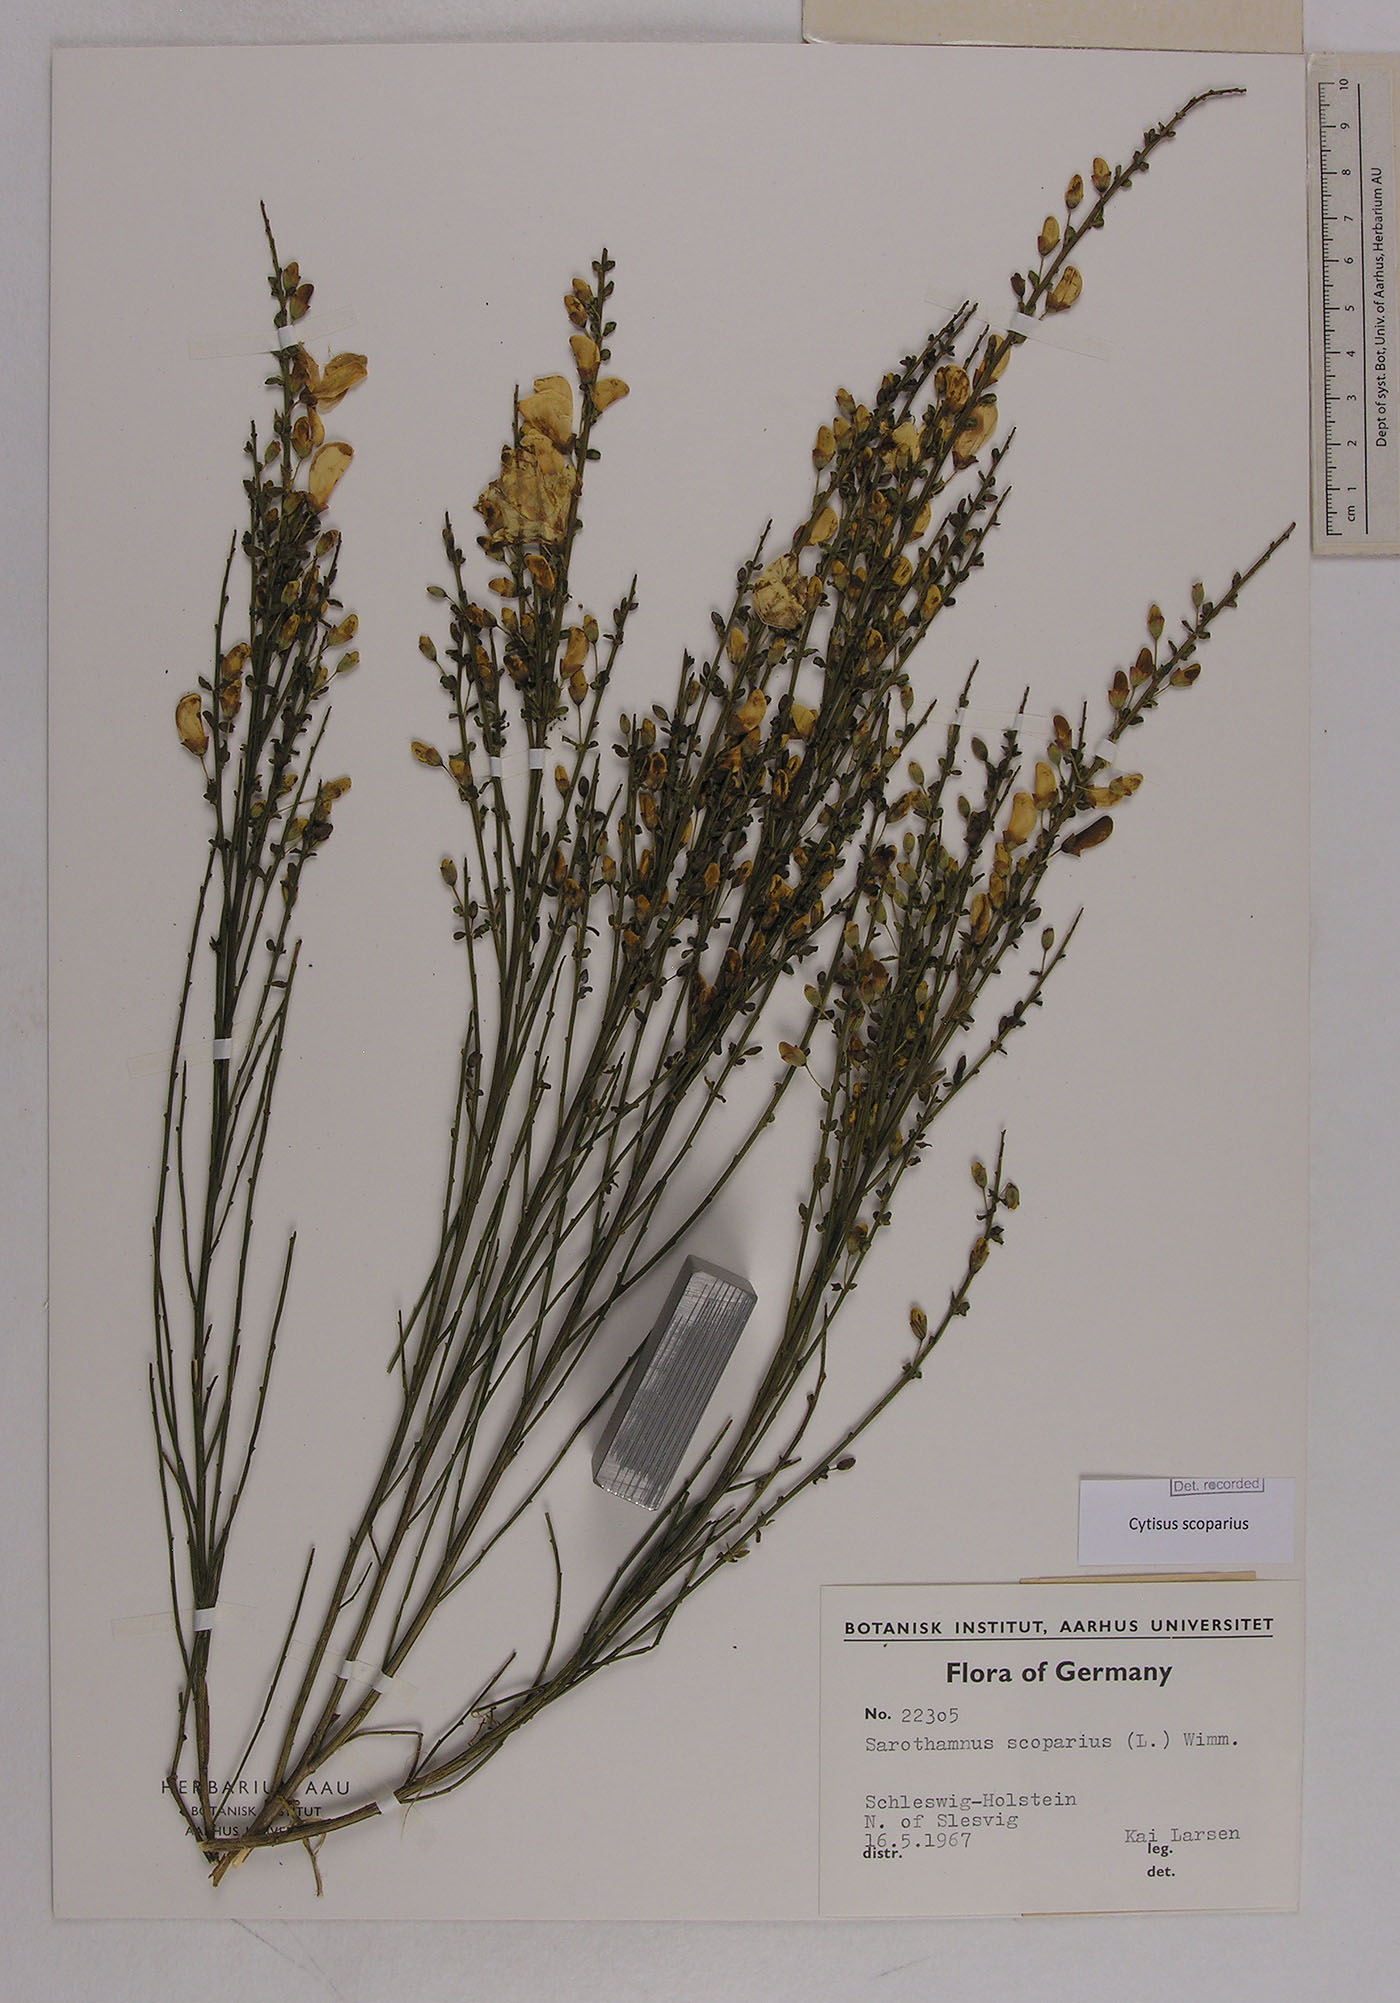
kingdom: Plantae
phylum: Tracheophyta
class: Magnoliopsida
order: Fabales
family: Fabaceae
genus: Cytisus
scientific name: Cytisus scoparius
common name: Scotch broom
